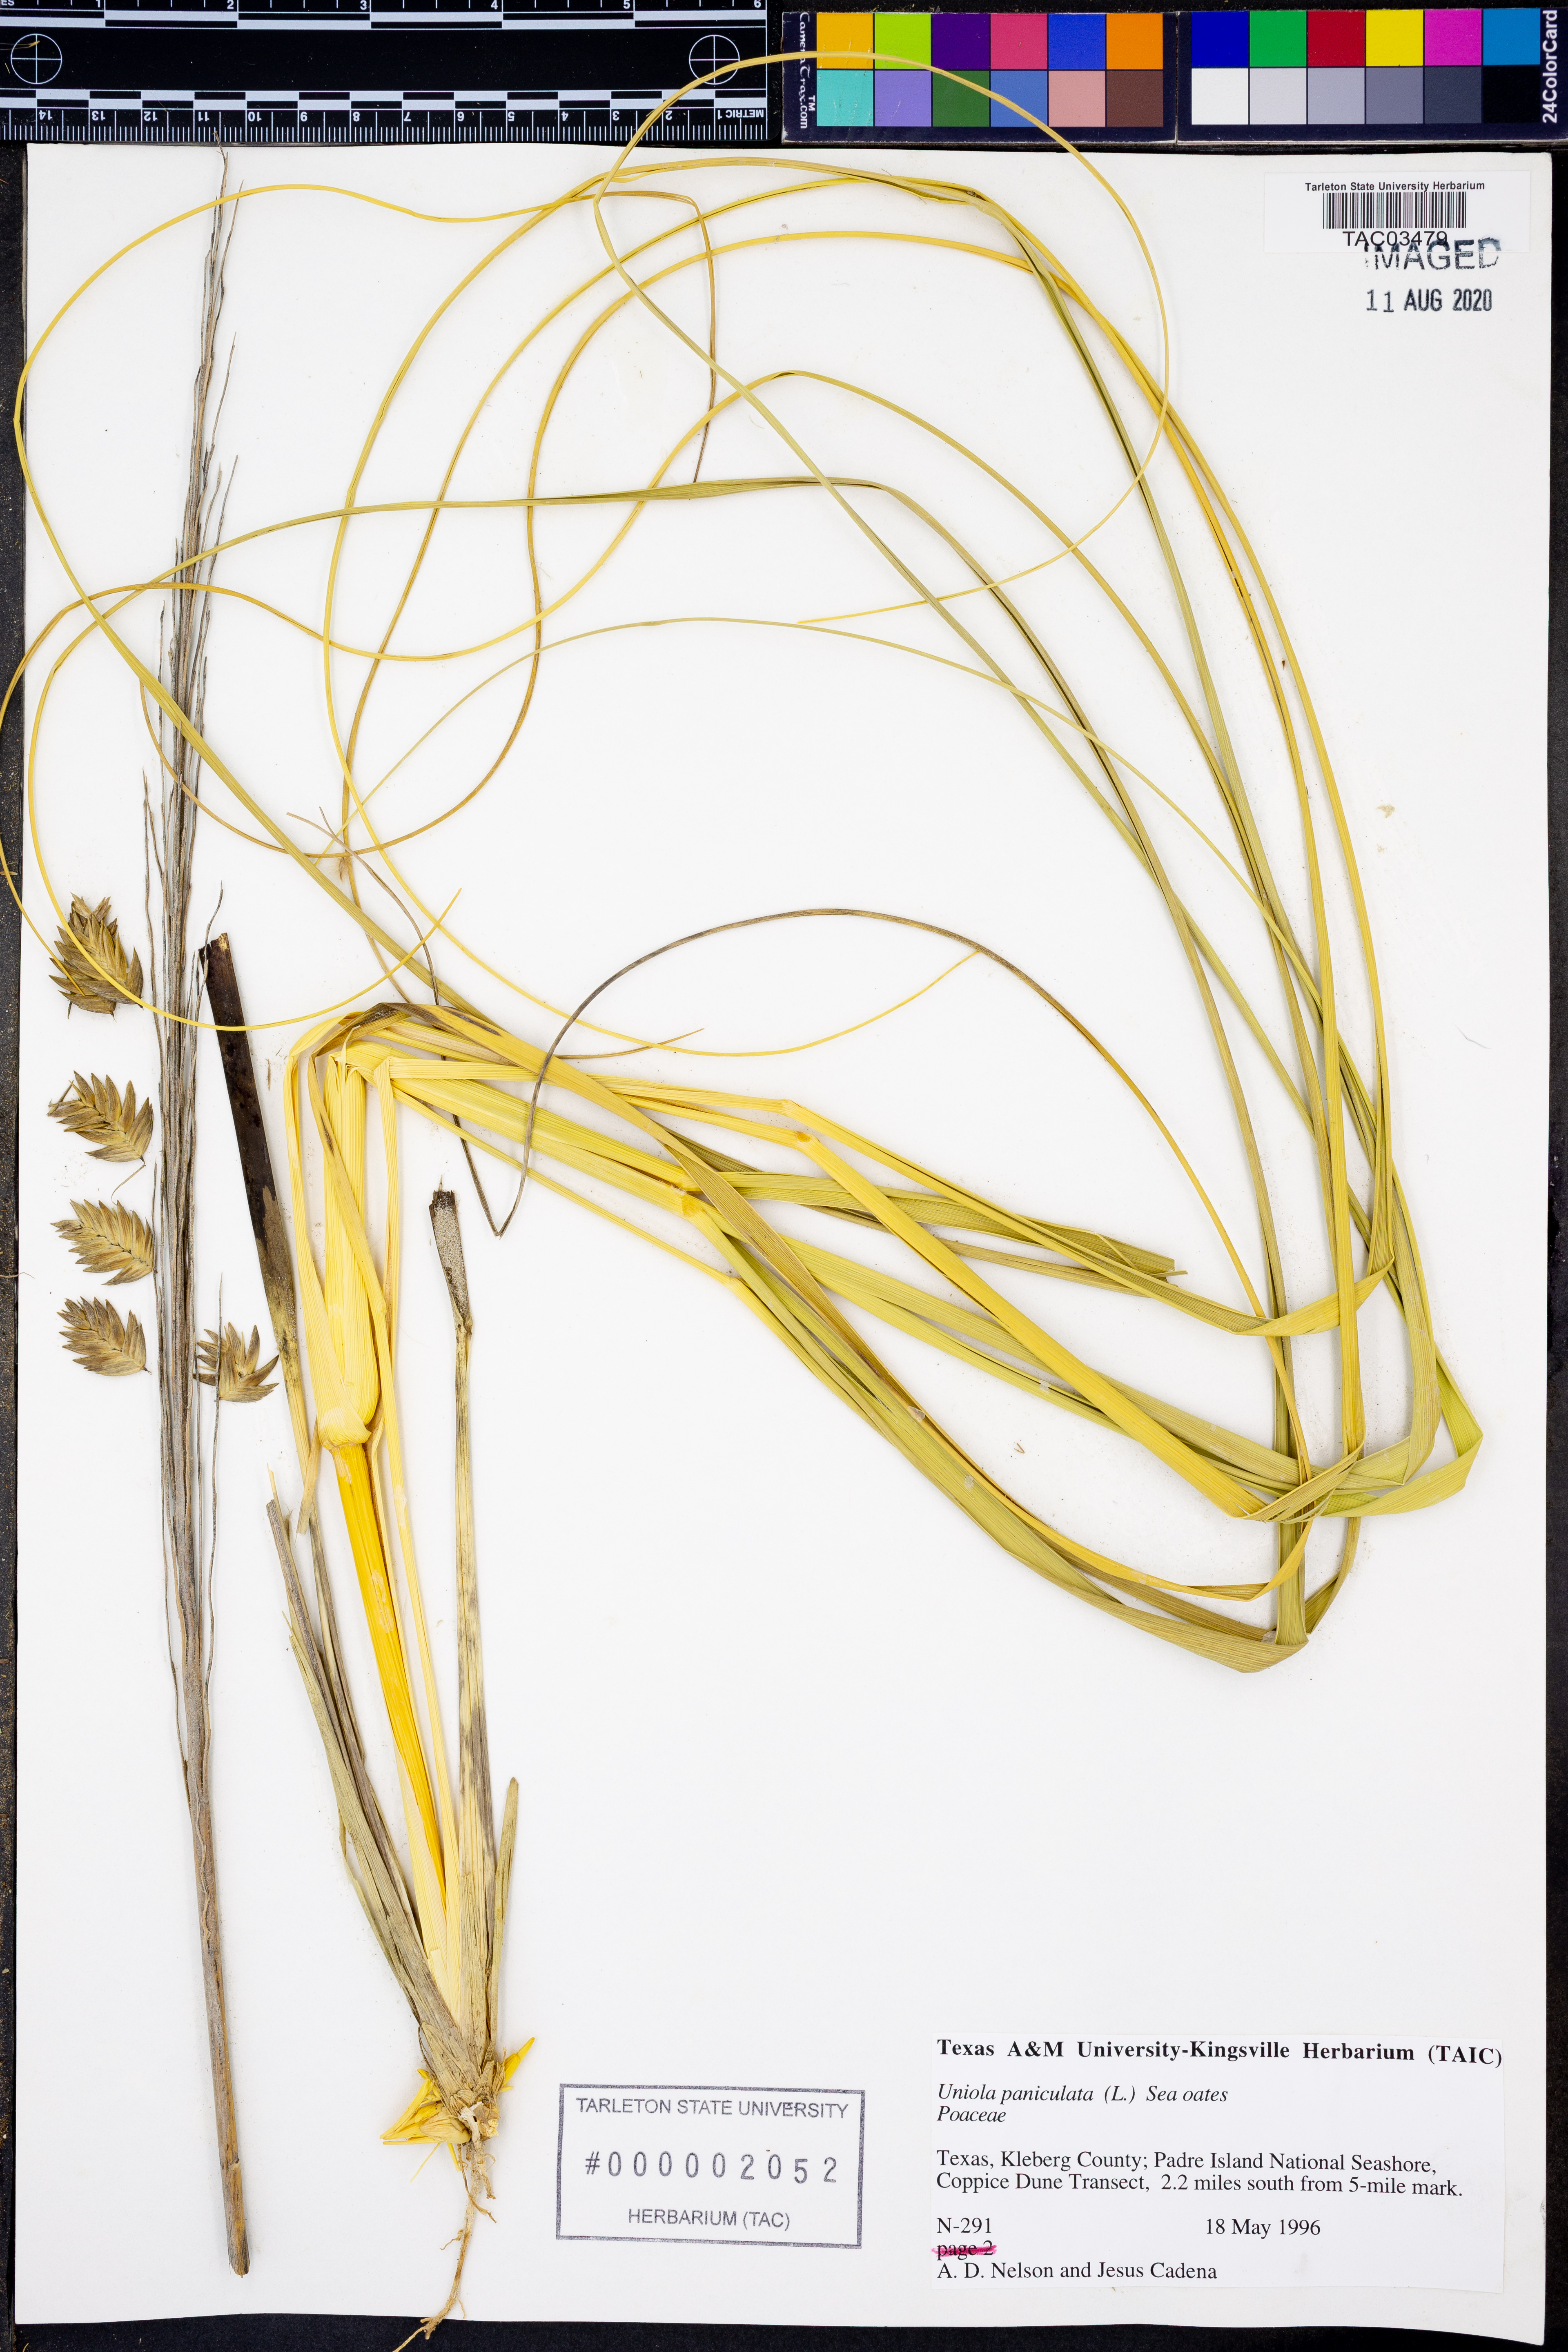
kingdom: Plantae
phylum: Tracheophyta
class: Liliopsida
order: Poales
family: Poaceae
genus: Uniola
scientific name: Uniola paniculata
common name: Seaside-oats
